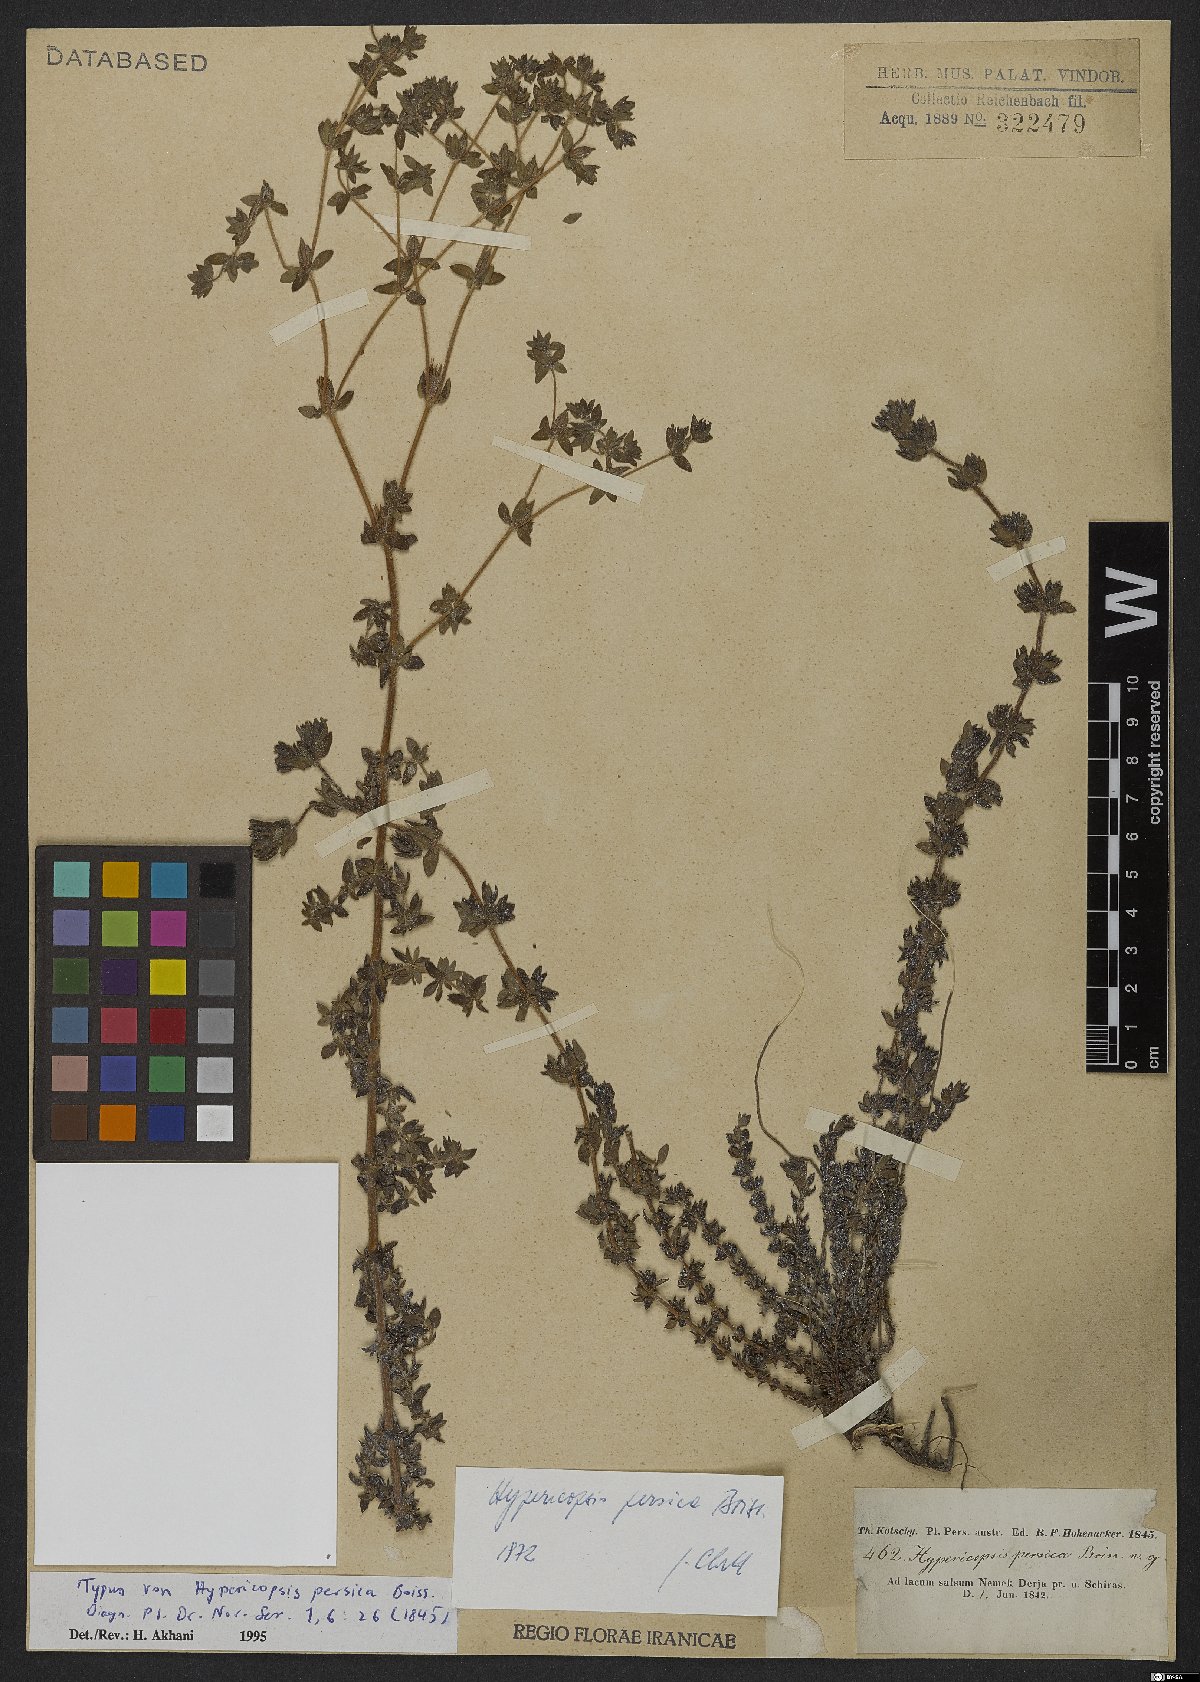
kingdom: Plantae
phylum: Tracheophyta
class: Magnoliopsida
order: Caryophyllales
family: Frankeniaceae
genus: Frankenia
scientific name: Frankenia persica
